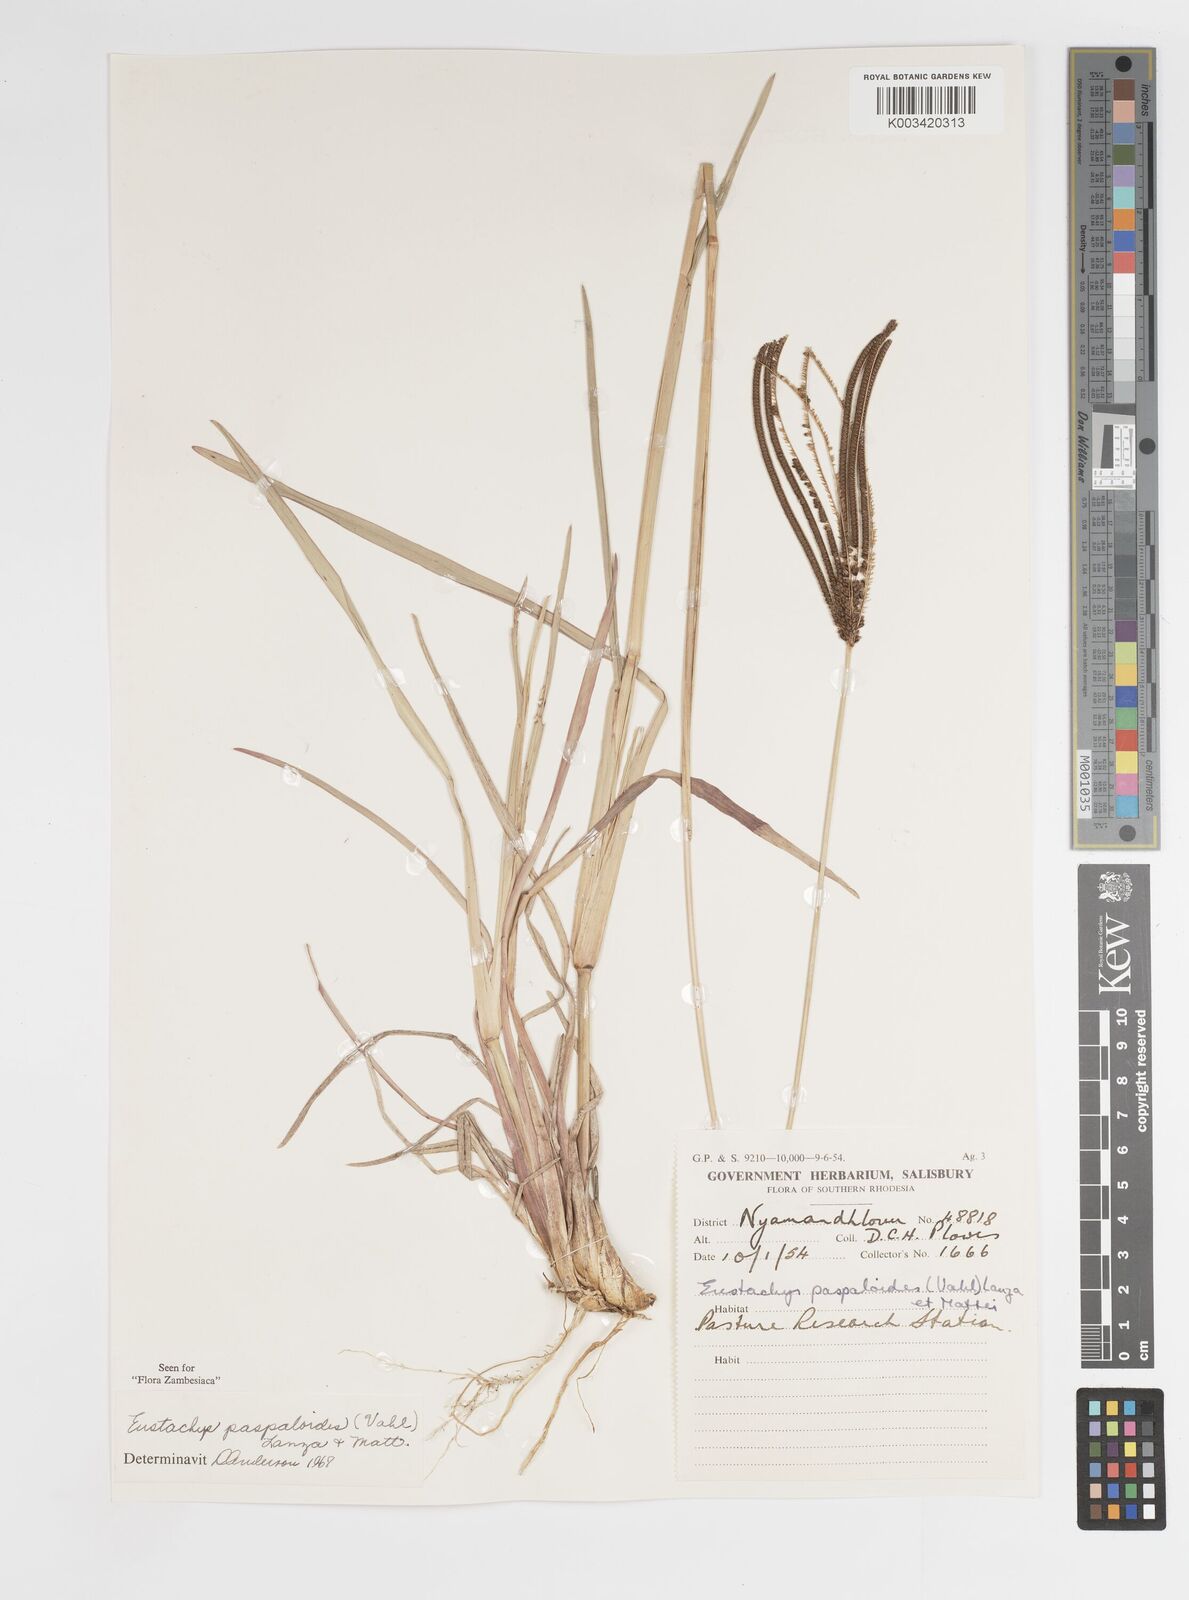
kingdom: Plantae
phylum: Tracheophyta
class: Liliopsida
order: Poales
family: Poaceae
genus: Eustachys
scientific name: Eustachys paspaloides
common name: Caribbean fingergrass
